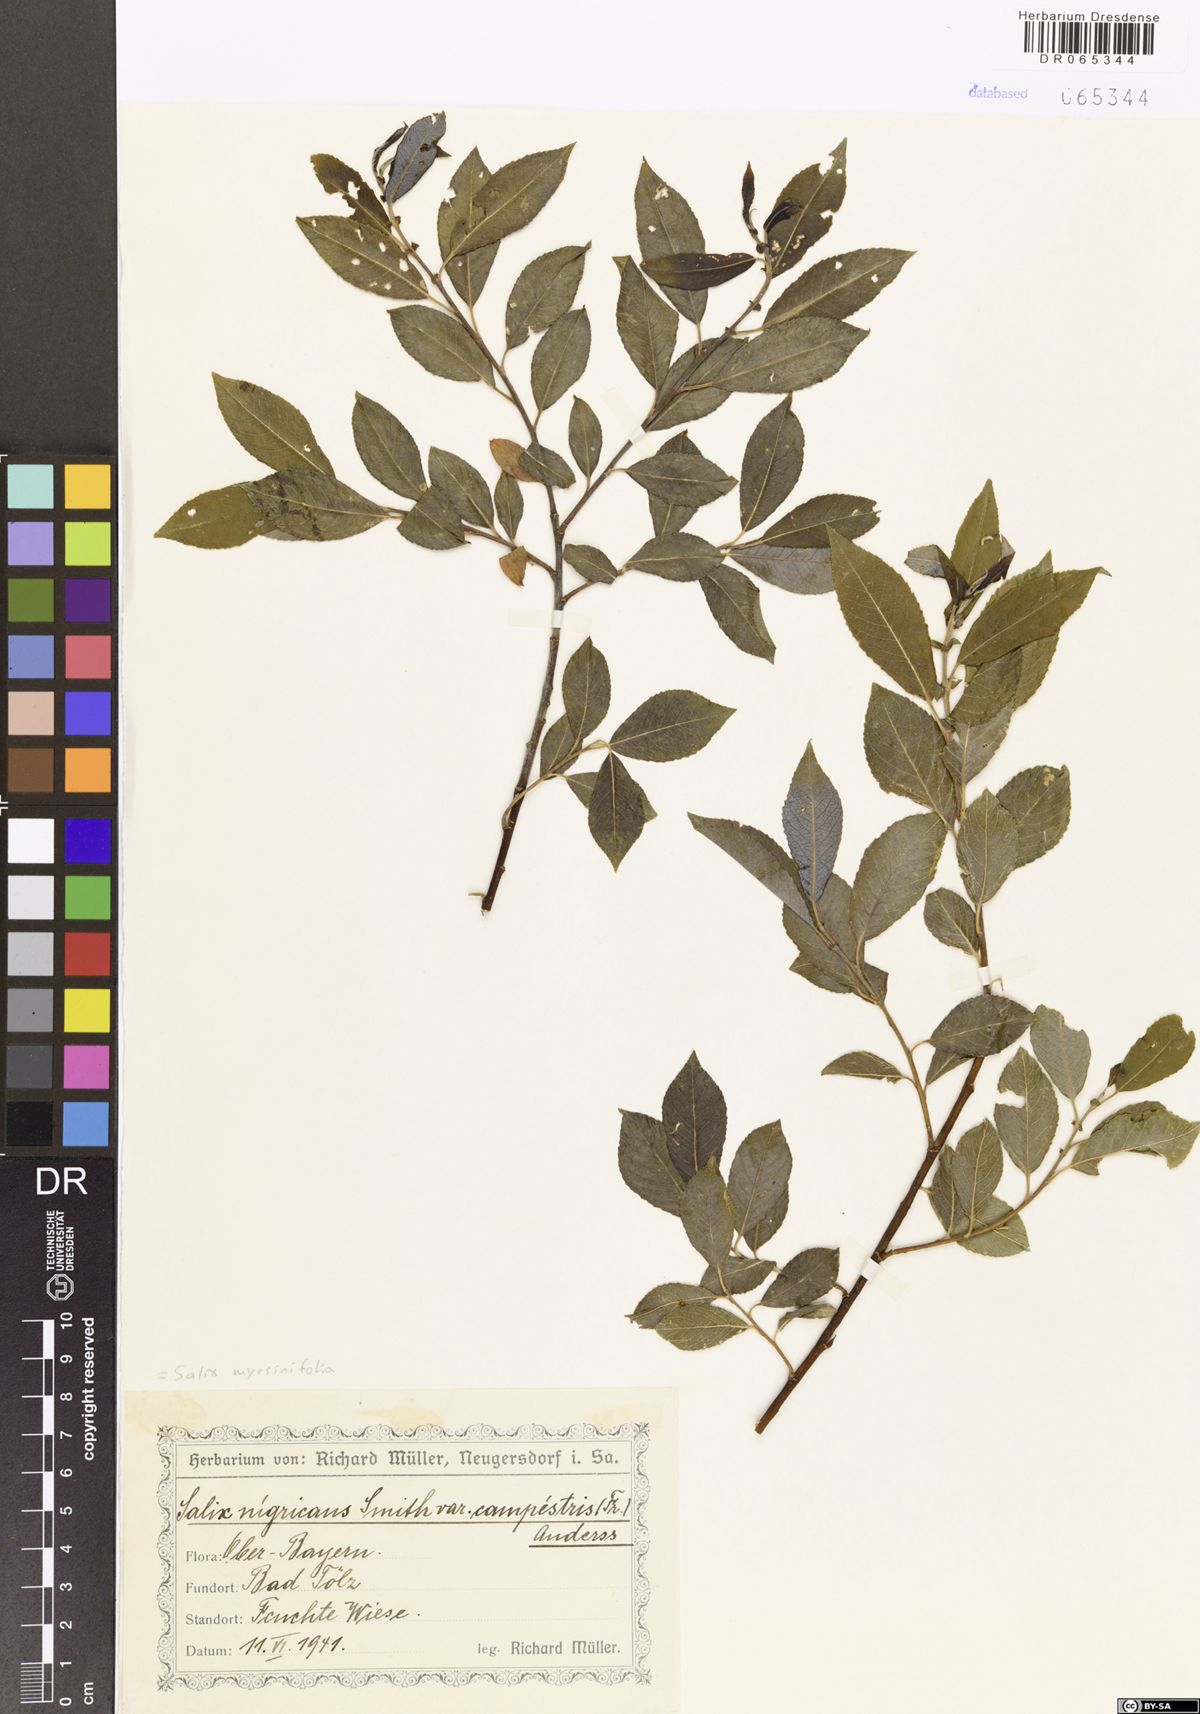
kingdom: Plantae
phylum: Tracheophyta
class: Magnoliopsida
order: Malpighiales
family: Salicaceae
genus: Salix
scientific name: Salix myrsinifolia
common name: Dark-leaved willow
